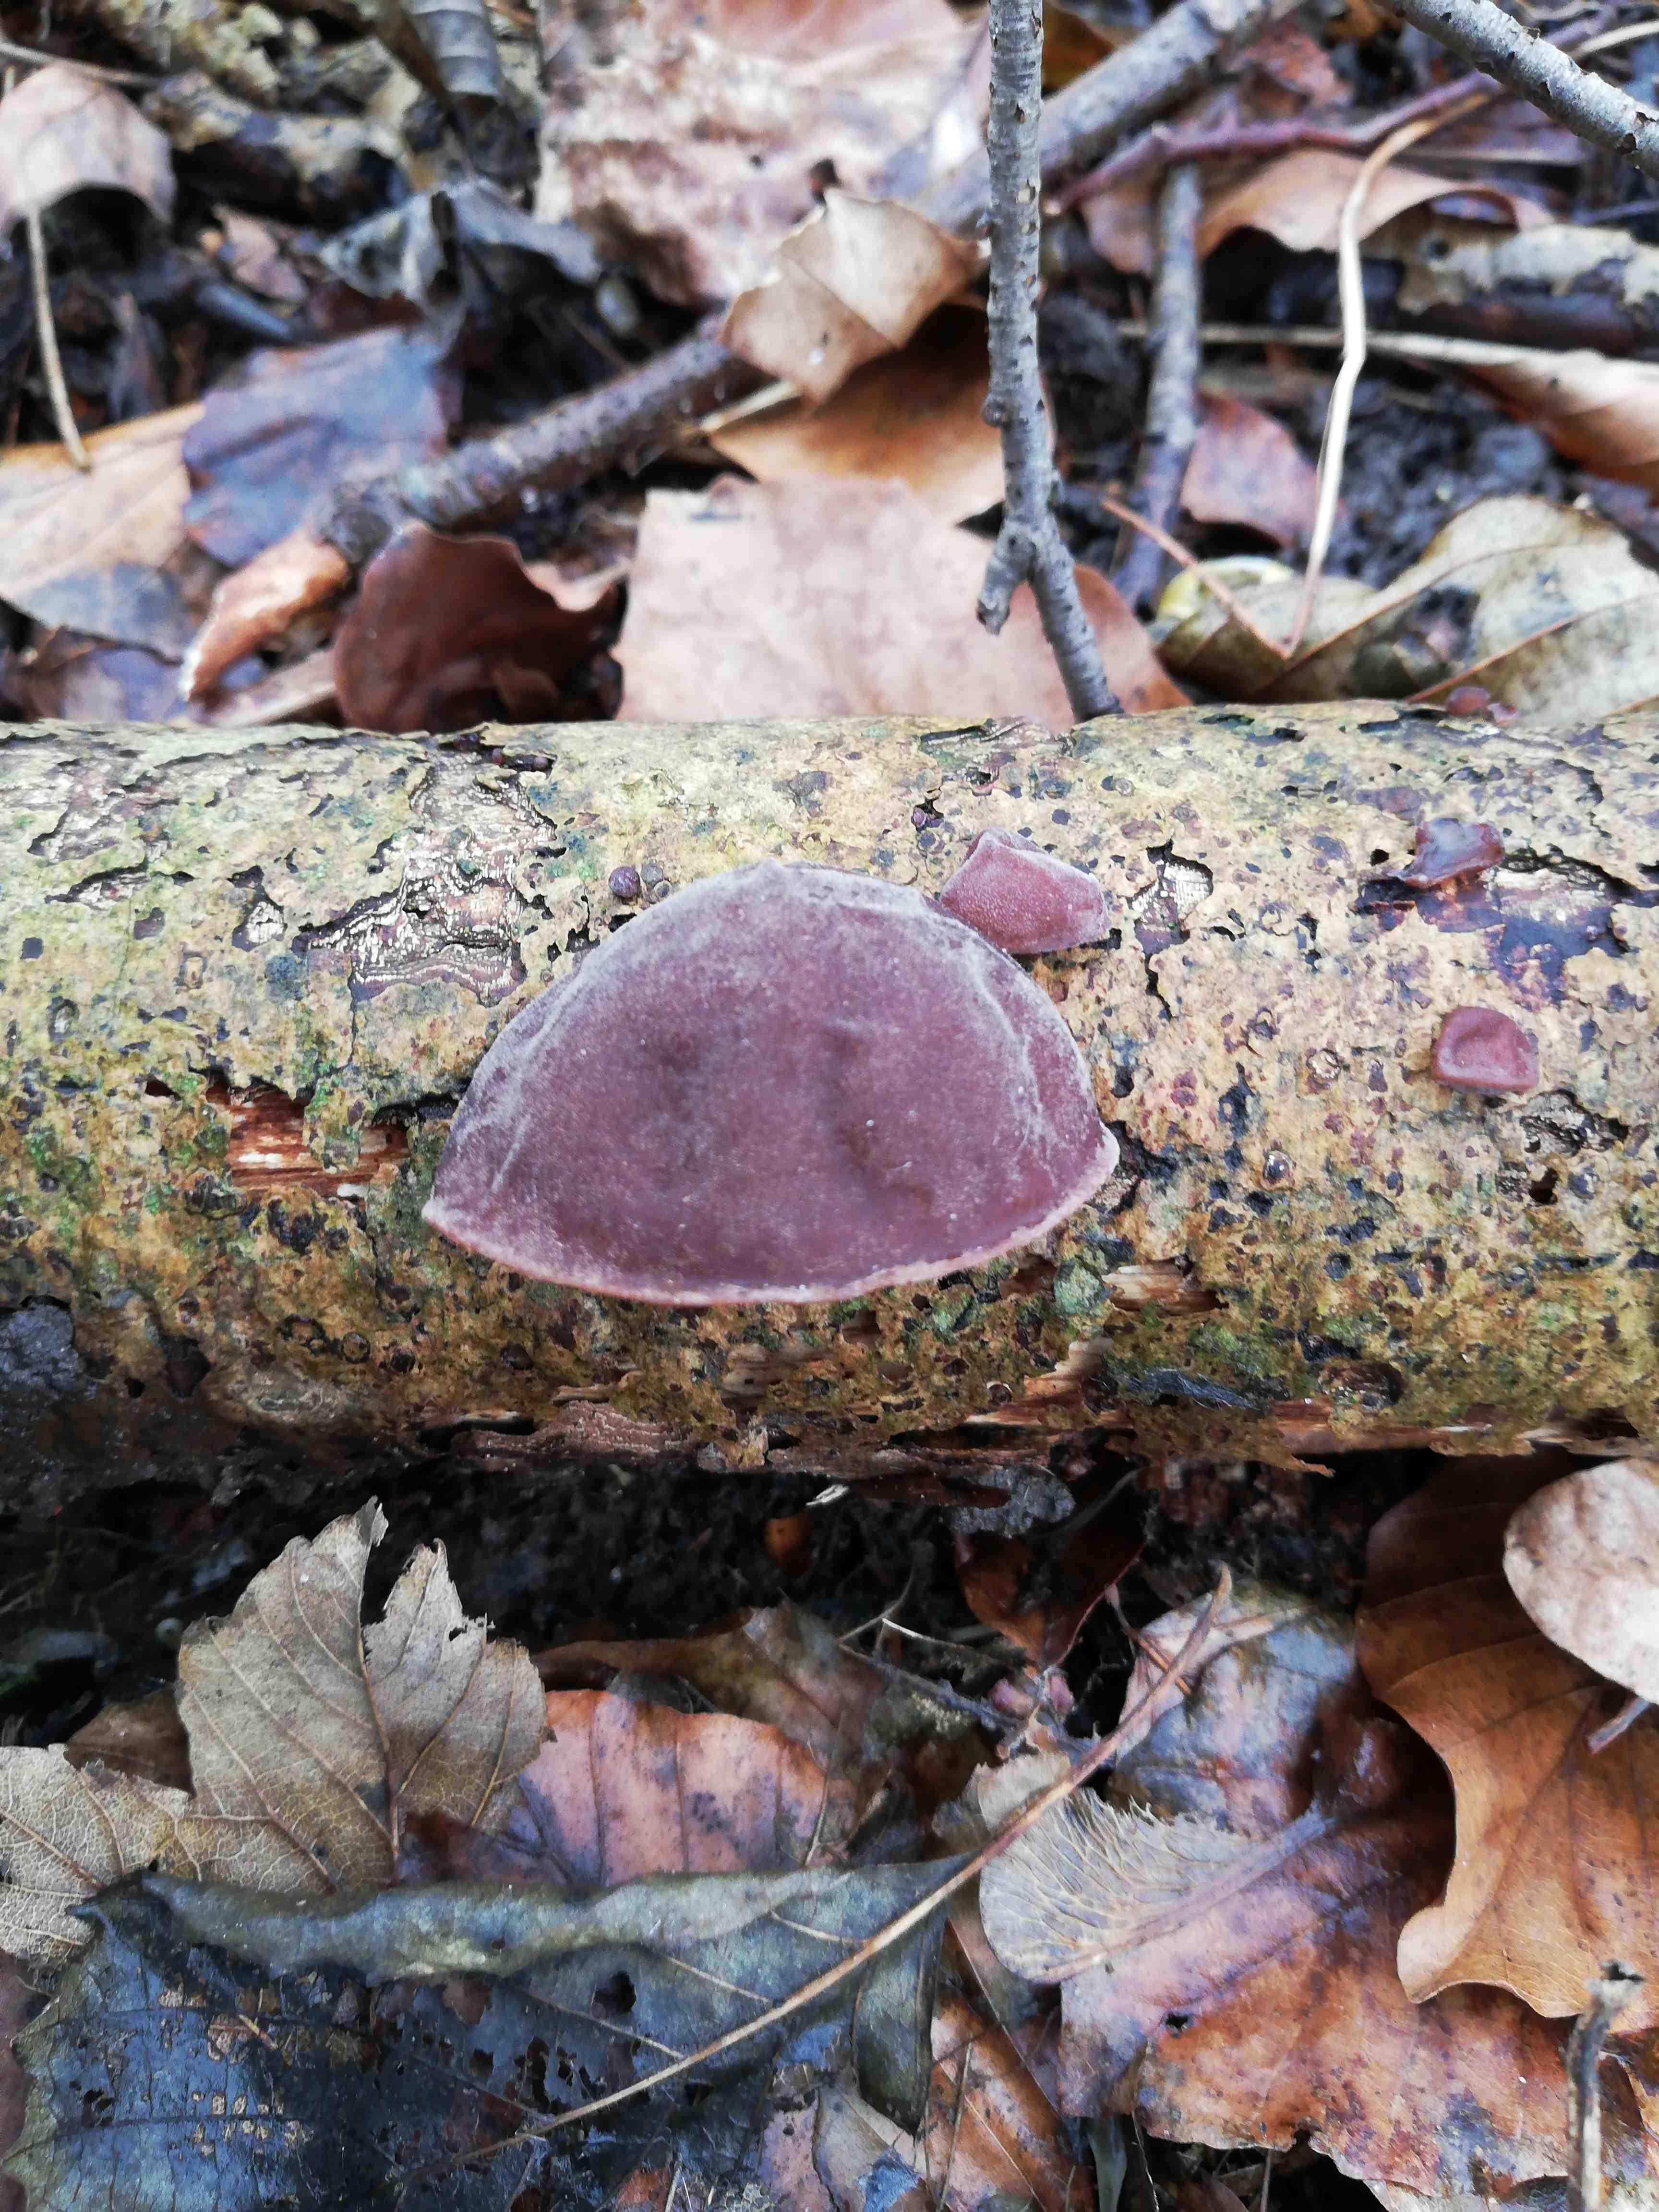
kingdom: Fungi
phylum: Basidiomycota
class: Agaricomycetes
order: Auriculariales
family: Auriculariaceae
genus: Auricularia
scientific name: Auricularia auricula-judae
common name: almindelig judasøre
